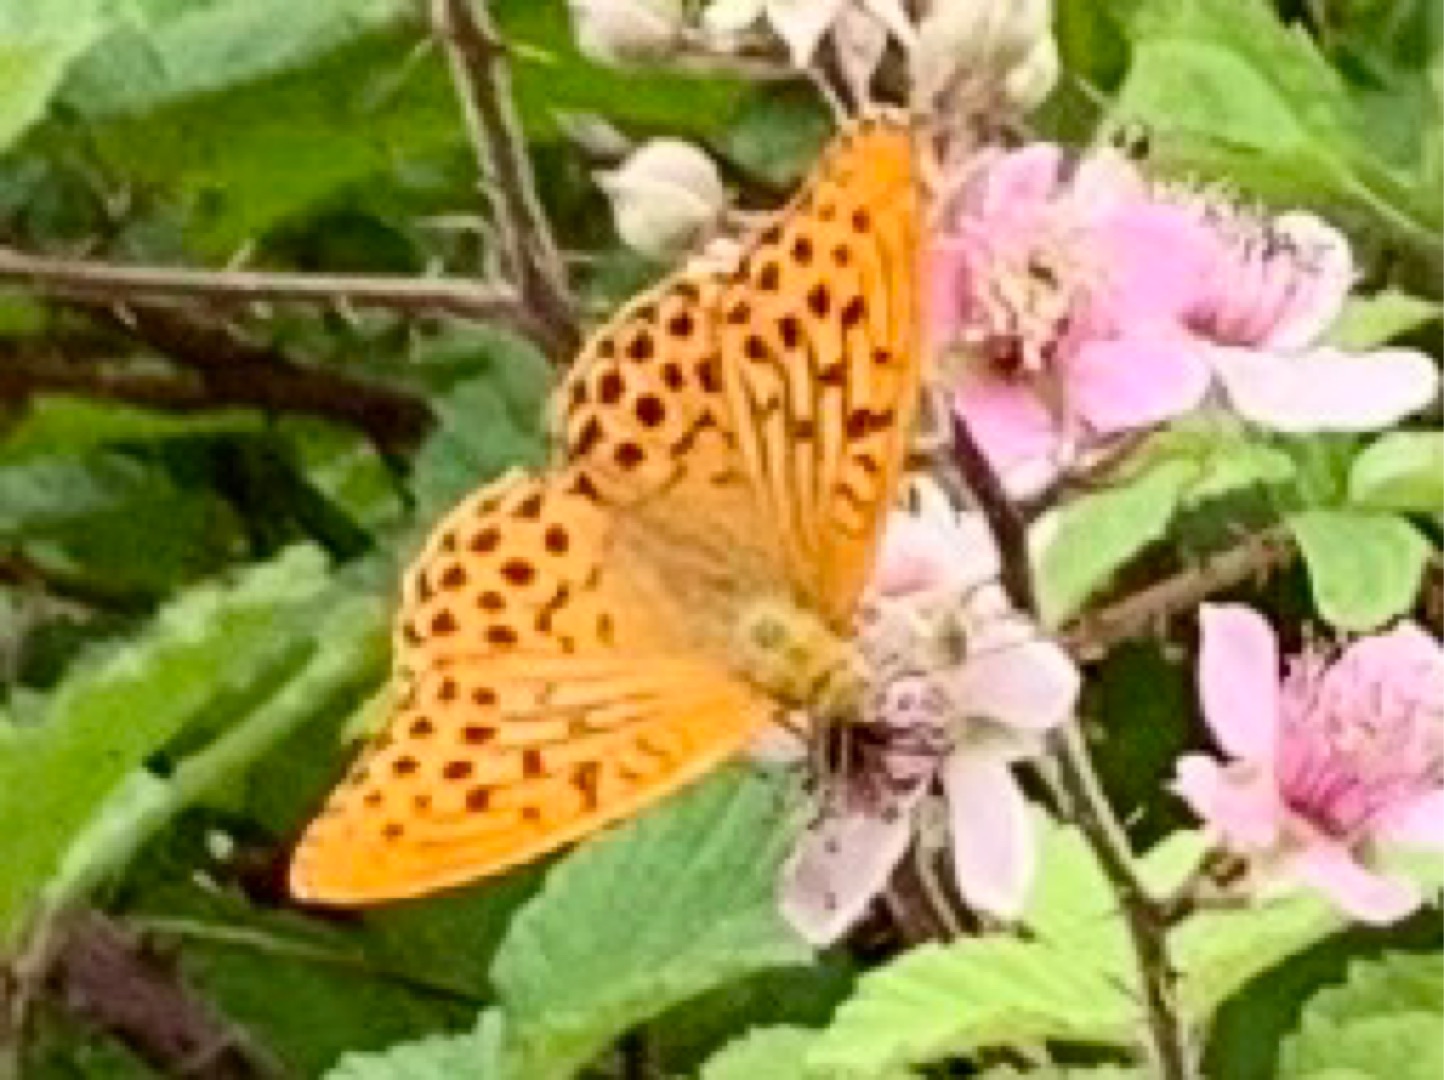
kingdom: Animalia
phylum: Arthropoda
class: Insecta
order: Lepidoptera
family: Nymphalidae
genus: Argynnis
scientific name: Argynnis paphia
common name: Kejserkåbe
